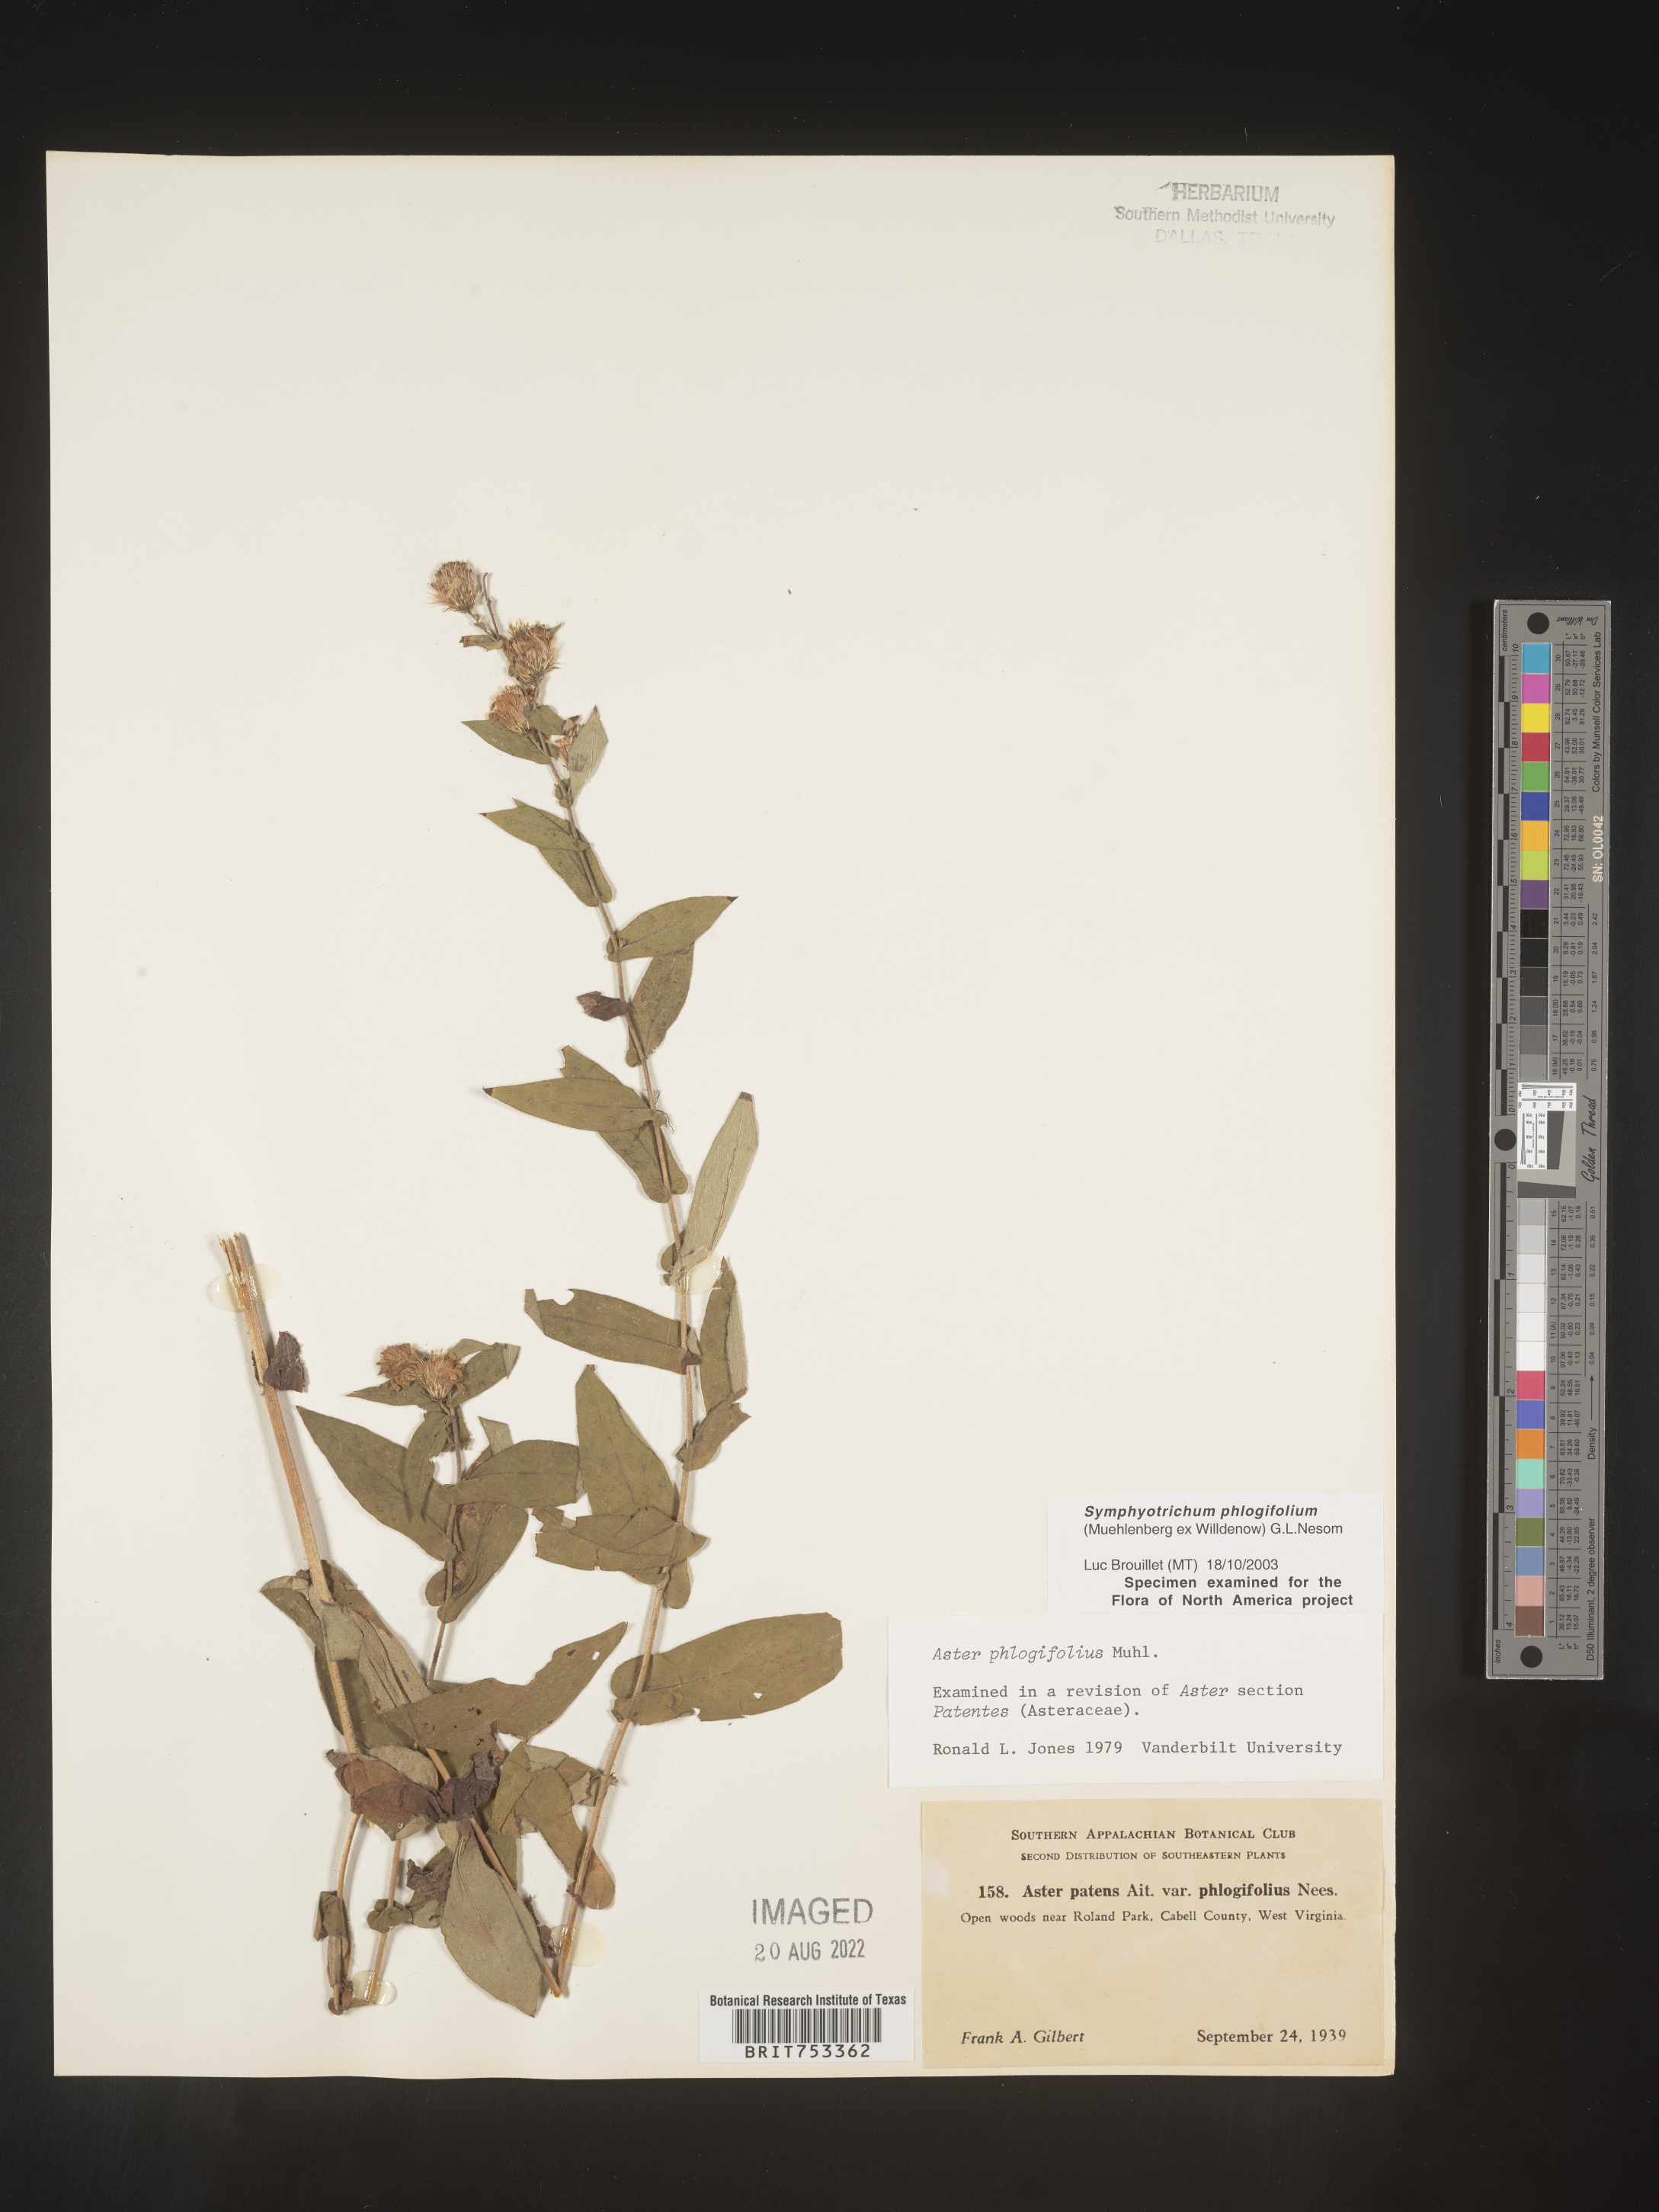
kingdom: Plantae
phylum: Tracheophyta
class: Magnoliopsida
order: Asterales
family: Asteraceae
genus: Symphyotrichum
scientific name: Symphyotrichum phlogifolium
